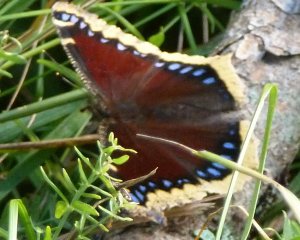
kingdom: Animalia
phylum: Arthropoda
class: Insecta
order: Lepidoptera
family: Nymphalidae
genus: Nymphalis
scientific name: Nymphalis antiopa
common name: Mourning Cloak
